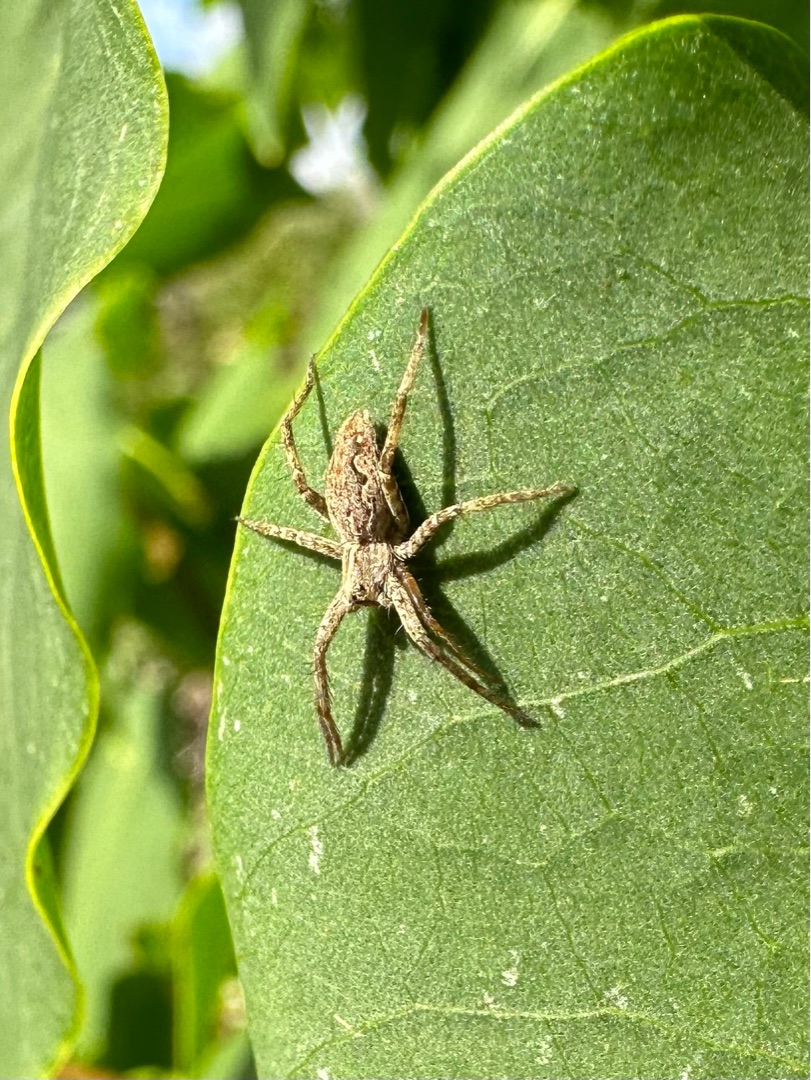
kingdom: Animalia
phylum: Arthropoda
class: Arachnida
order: Araneae
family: Pisauridae
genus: Pisaura
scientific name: Pisaura mirabilis
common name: Almindelig rovedderkop
